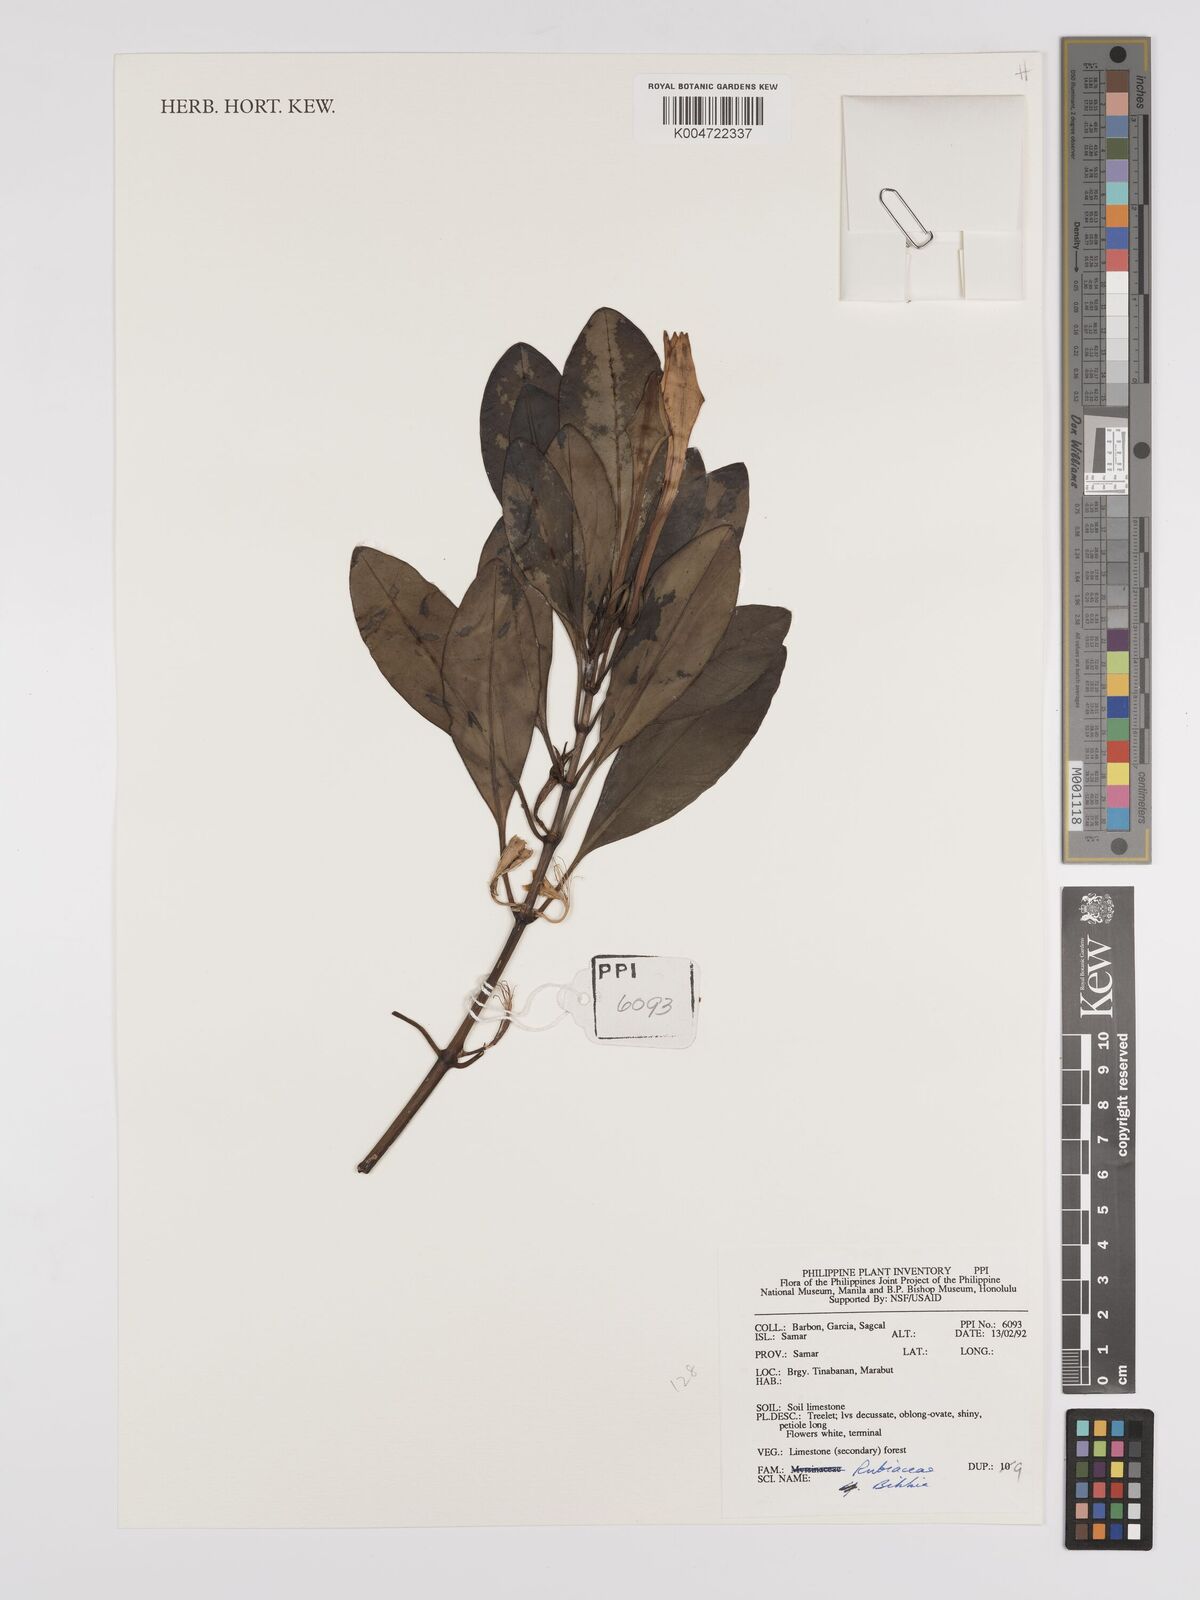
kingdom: Plantae
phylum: Tracheophyta
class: Magnoliopsida
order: Gentianales
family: Rubiaceae
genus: Bikkia
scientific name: Bikkia
